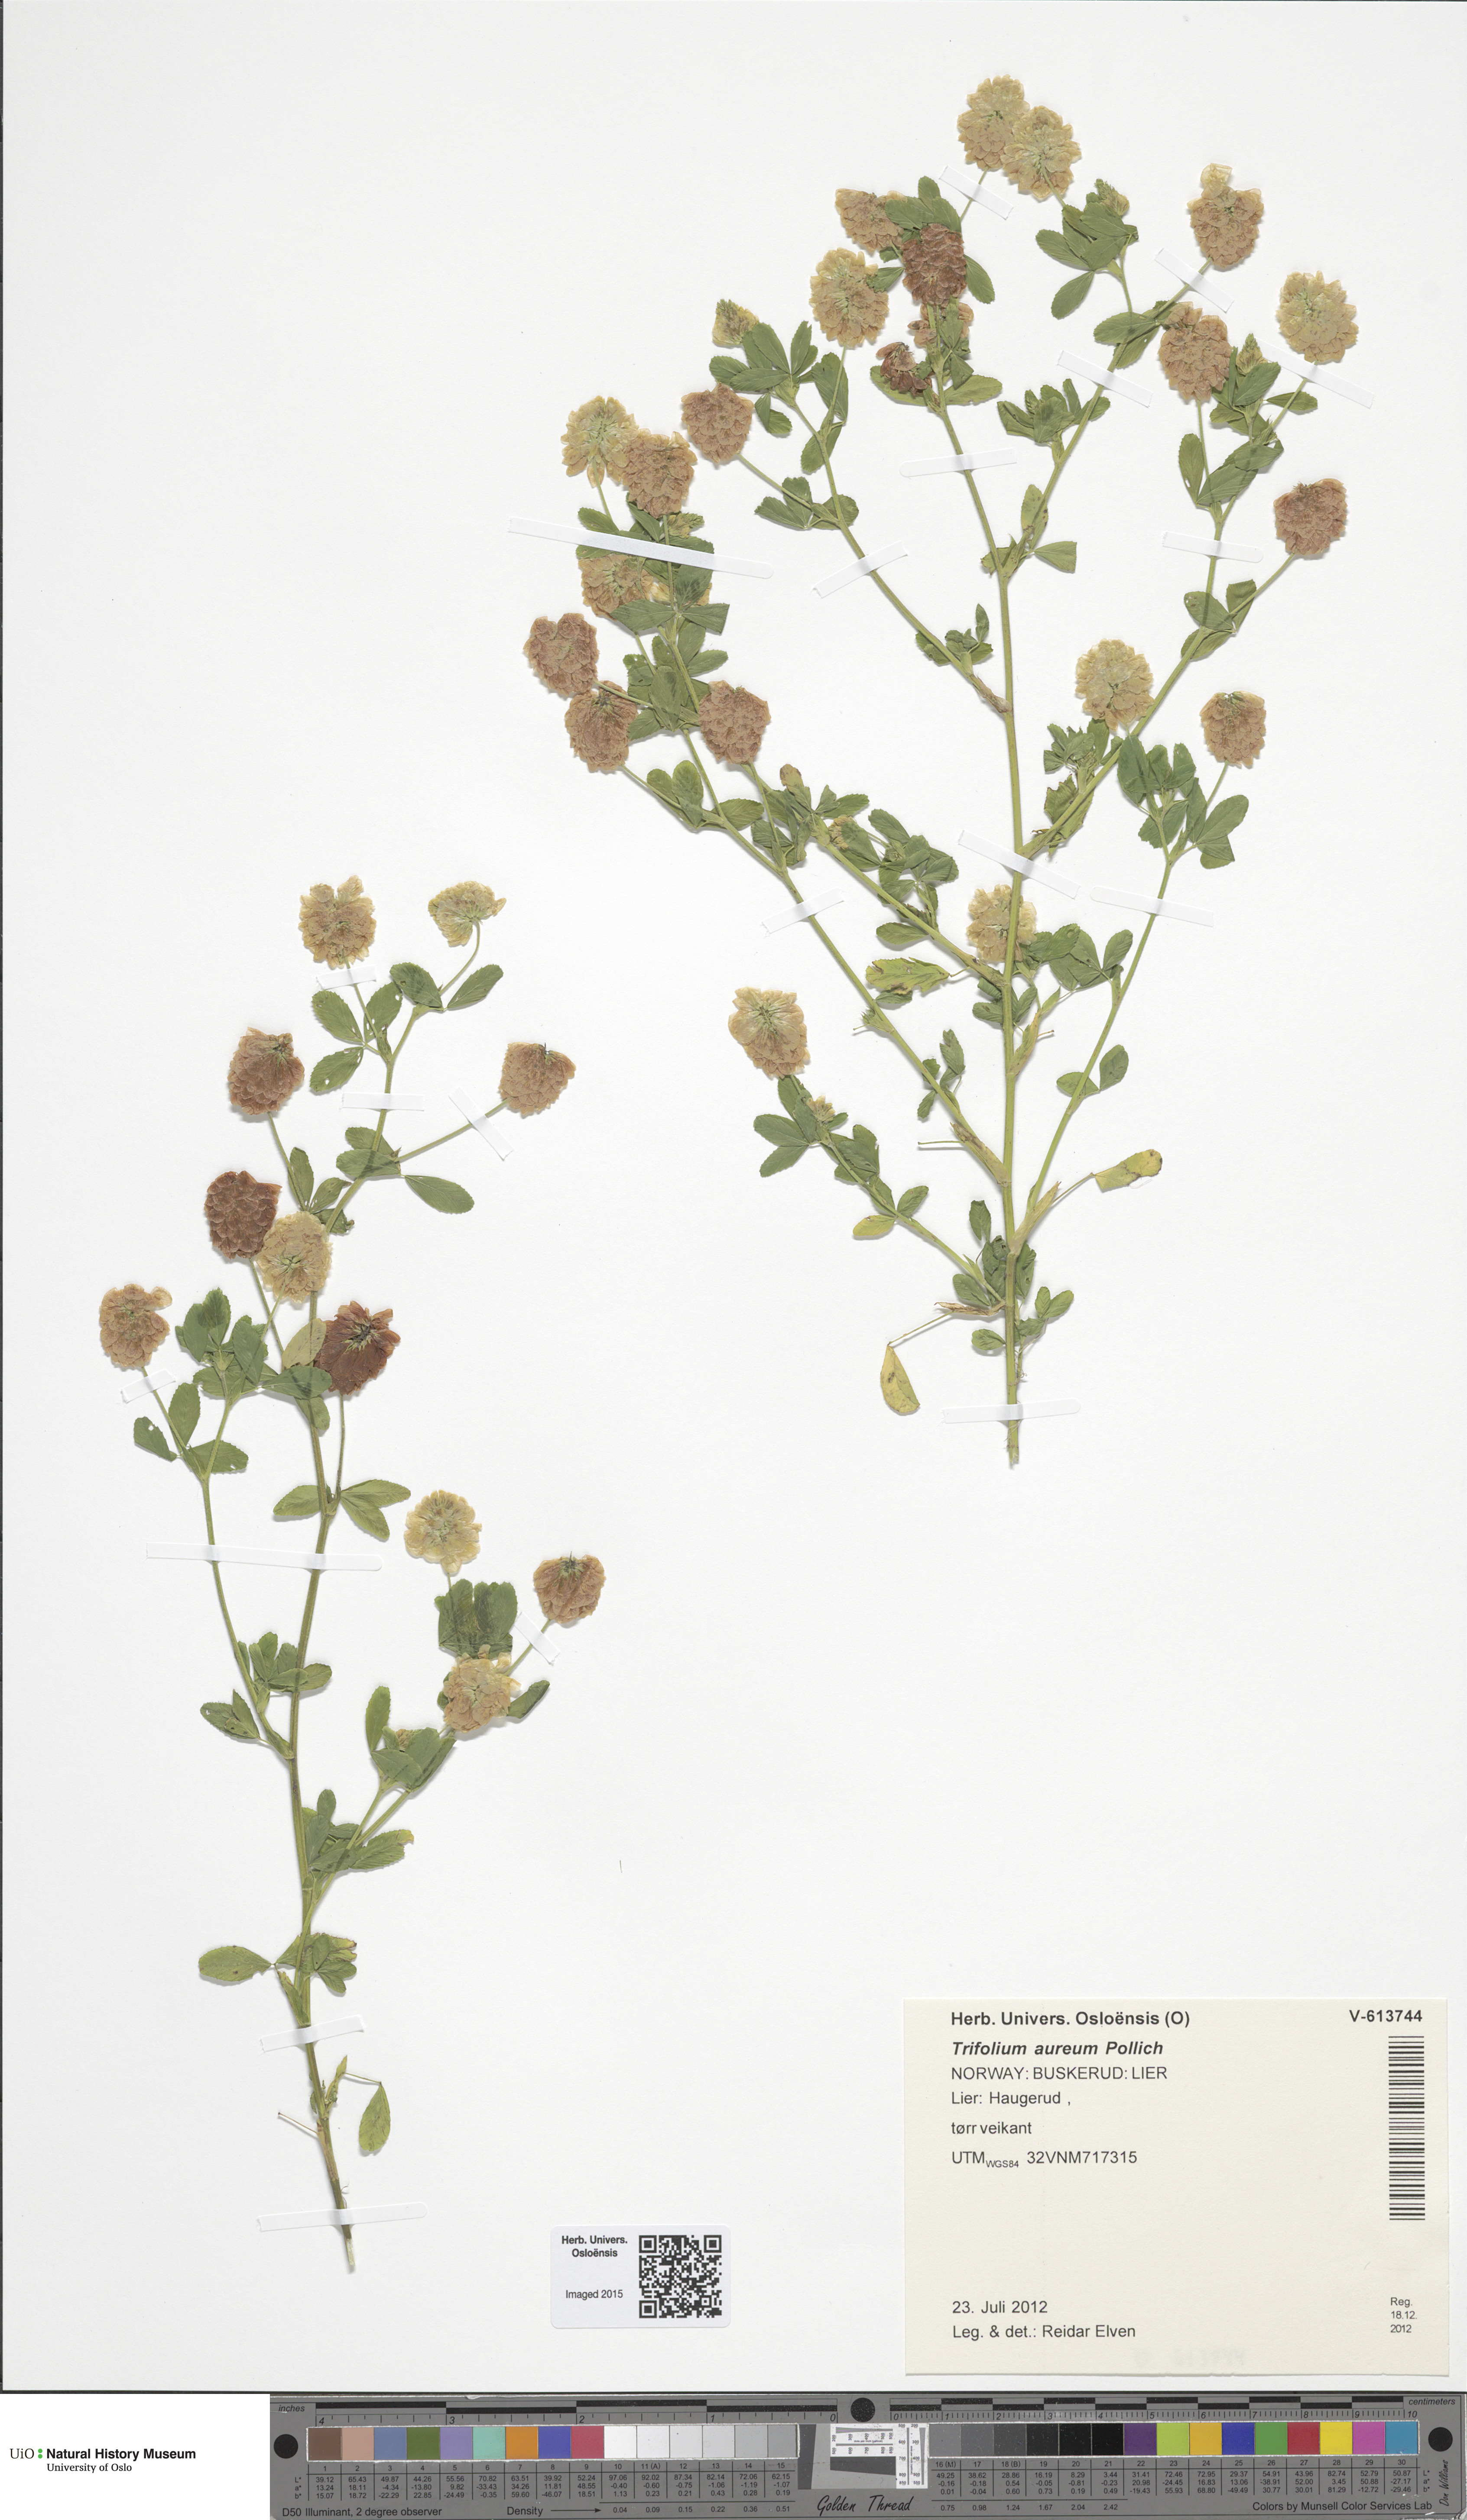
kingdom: Plantae
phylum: Tracheophyta
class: Magnoliopsida
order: Fabales
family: Fabaceae
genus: Trifolium
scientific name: Trifolium aureum
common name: Golden clover
